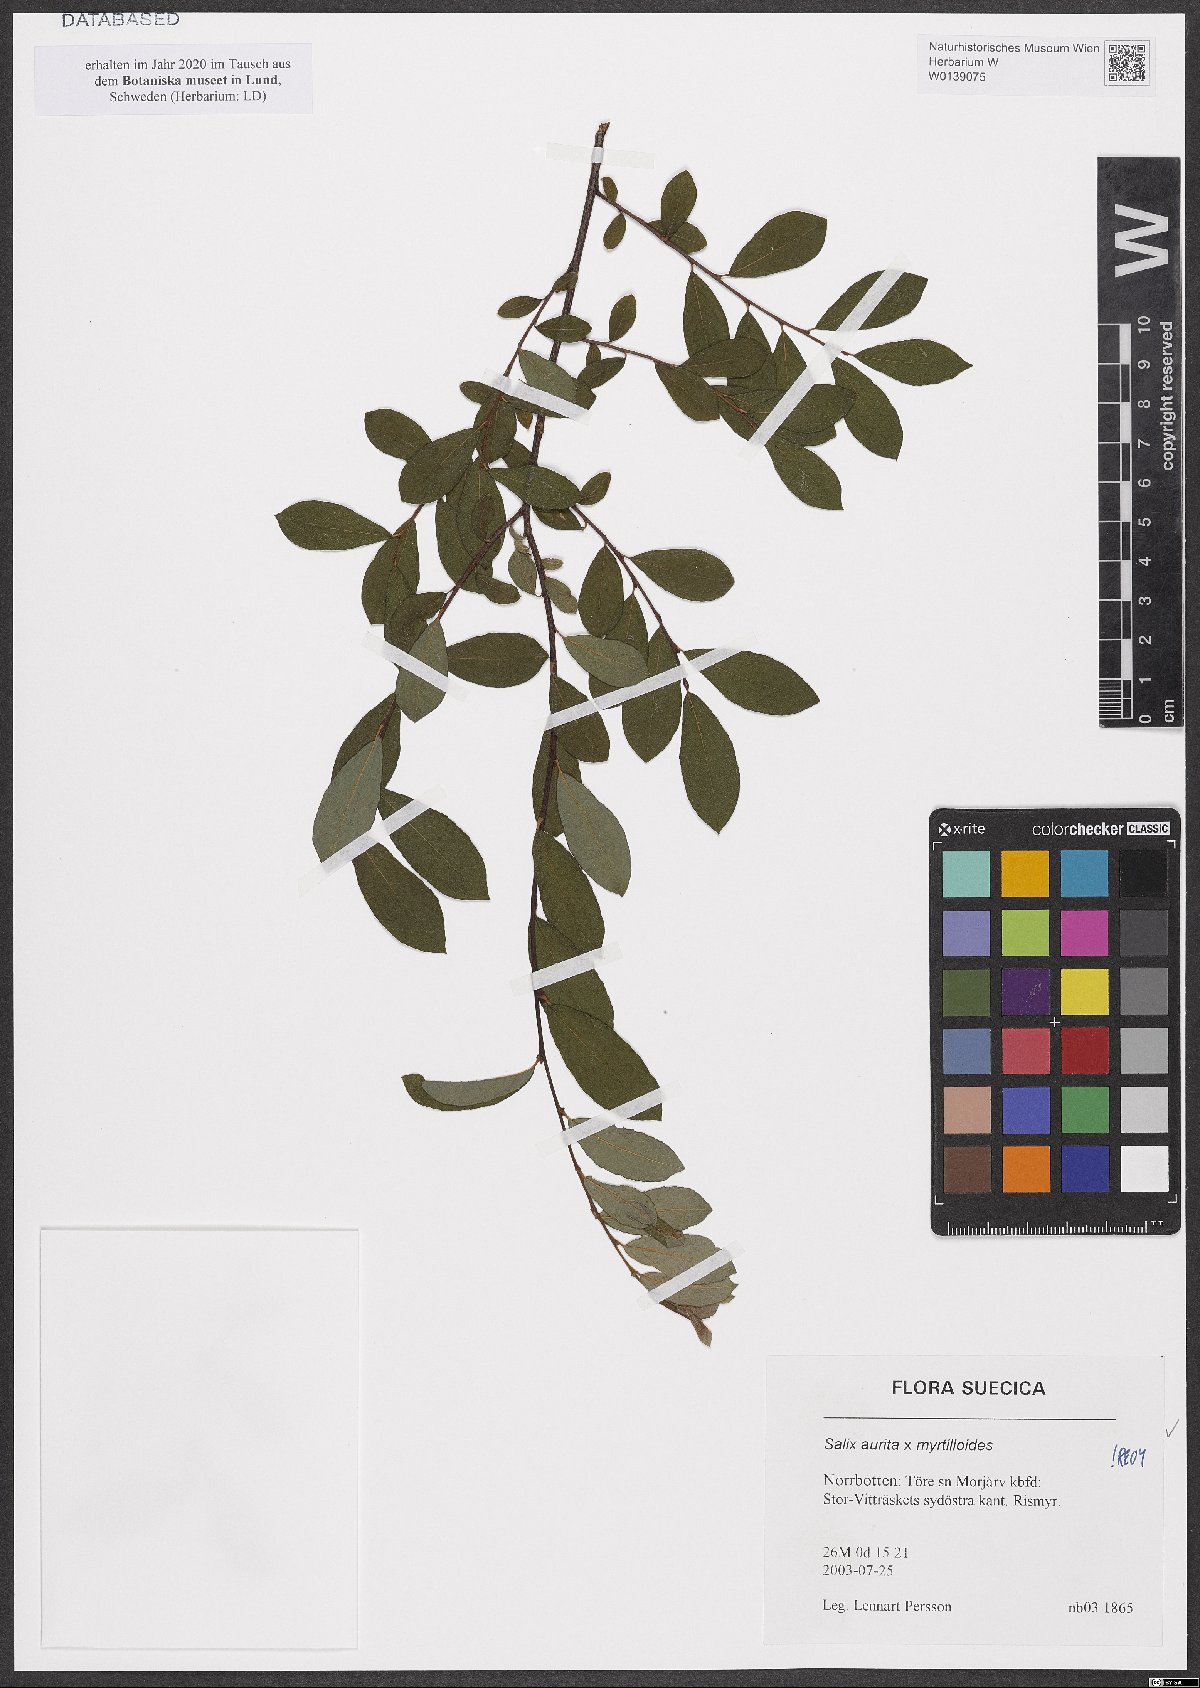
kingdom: Plantae
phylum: Tracheophyta
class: Magnoliopsida
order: Malpighiales
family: Salicaceae
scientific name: Salicaceae
